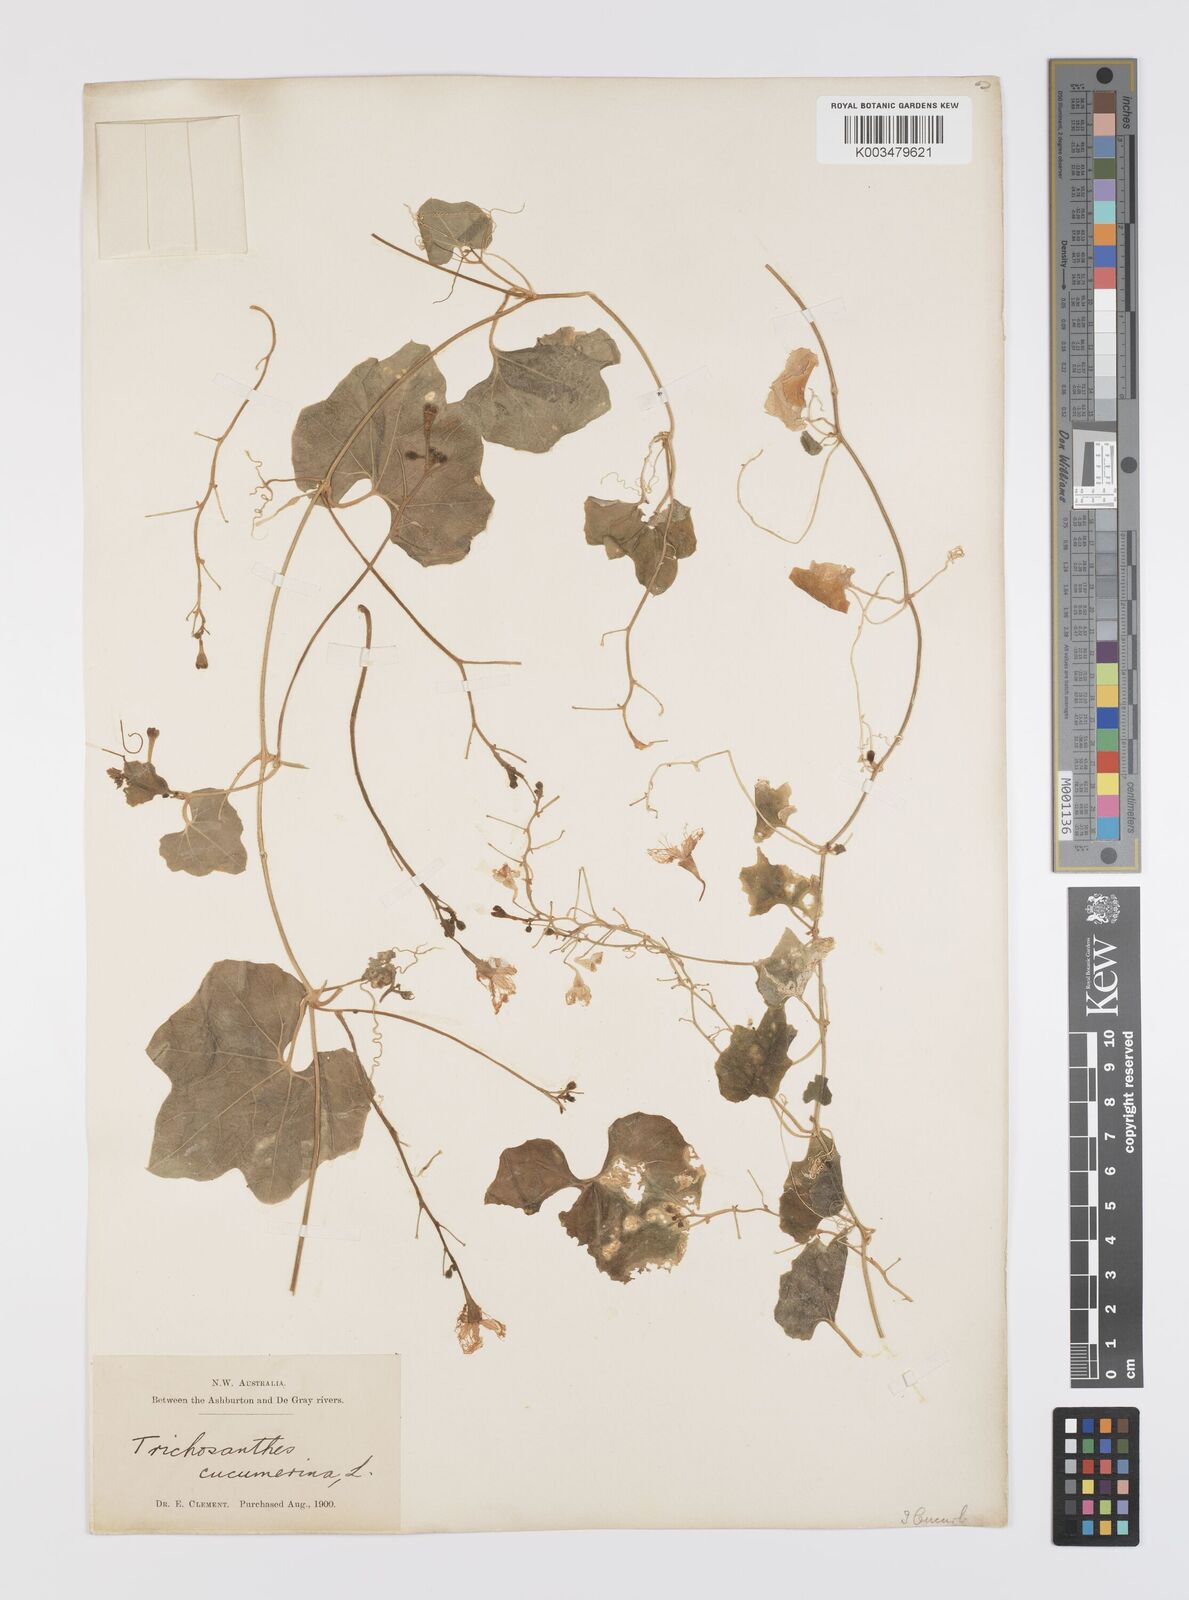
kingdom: Plantae
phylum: Tracheophyta
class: Magnoliopsida
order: Cucurbitales
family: Cucurbitaceae
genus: Trichosanthes
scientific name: Trichosanthes cucumerina
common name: Snakegourd
